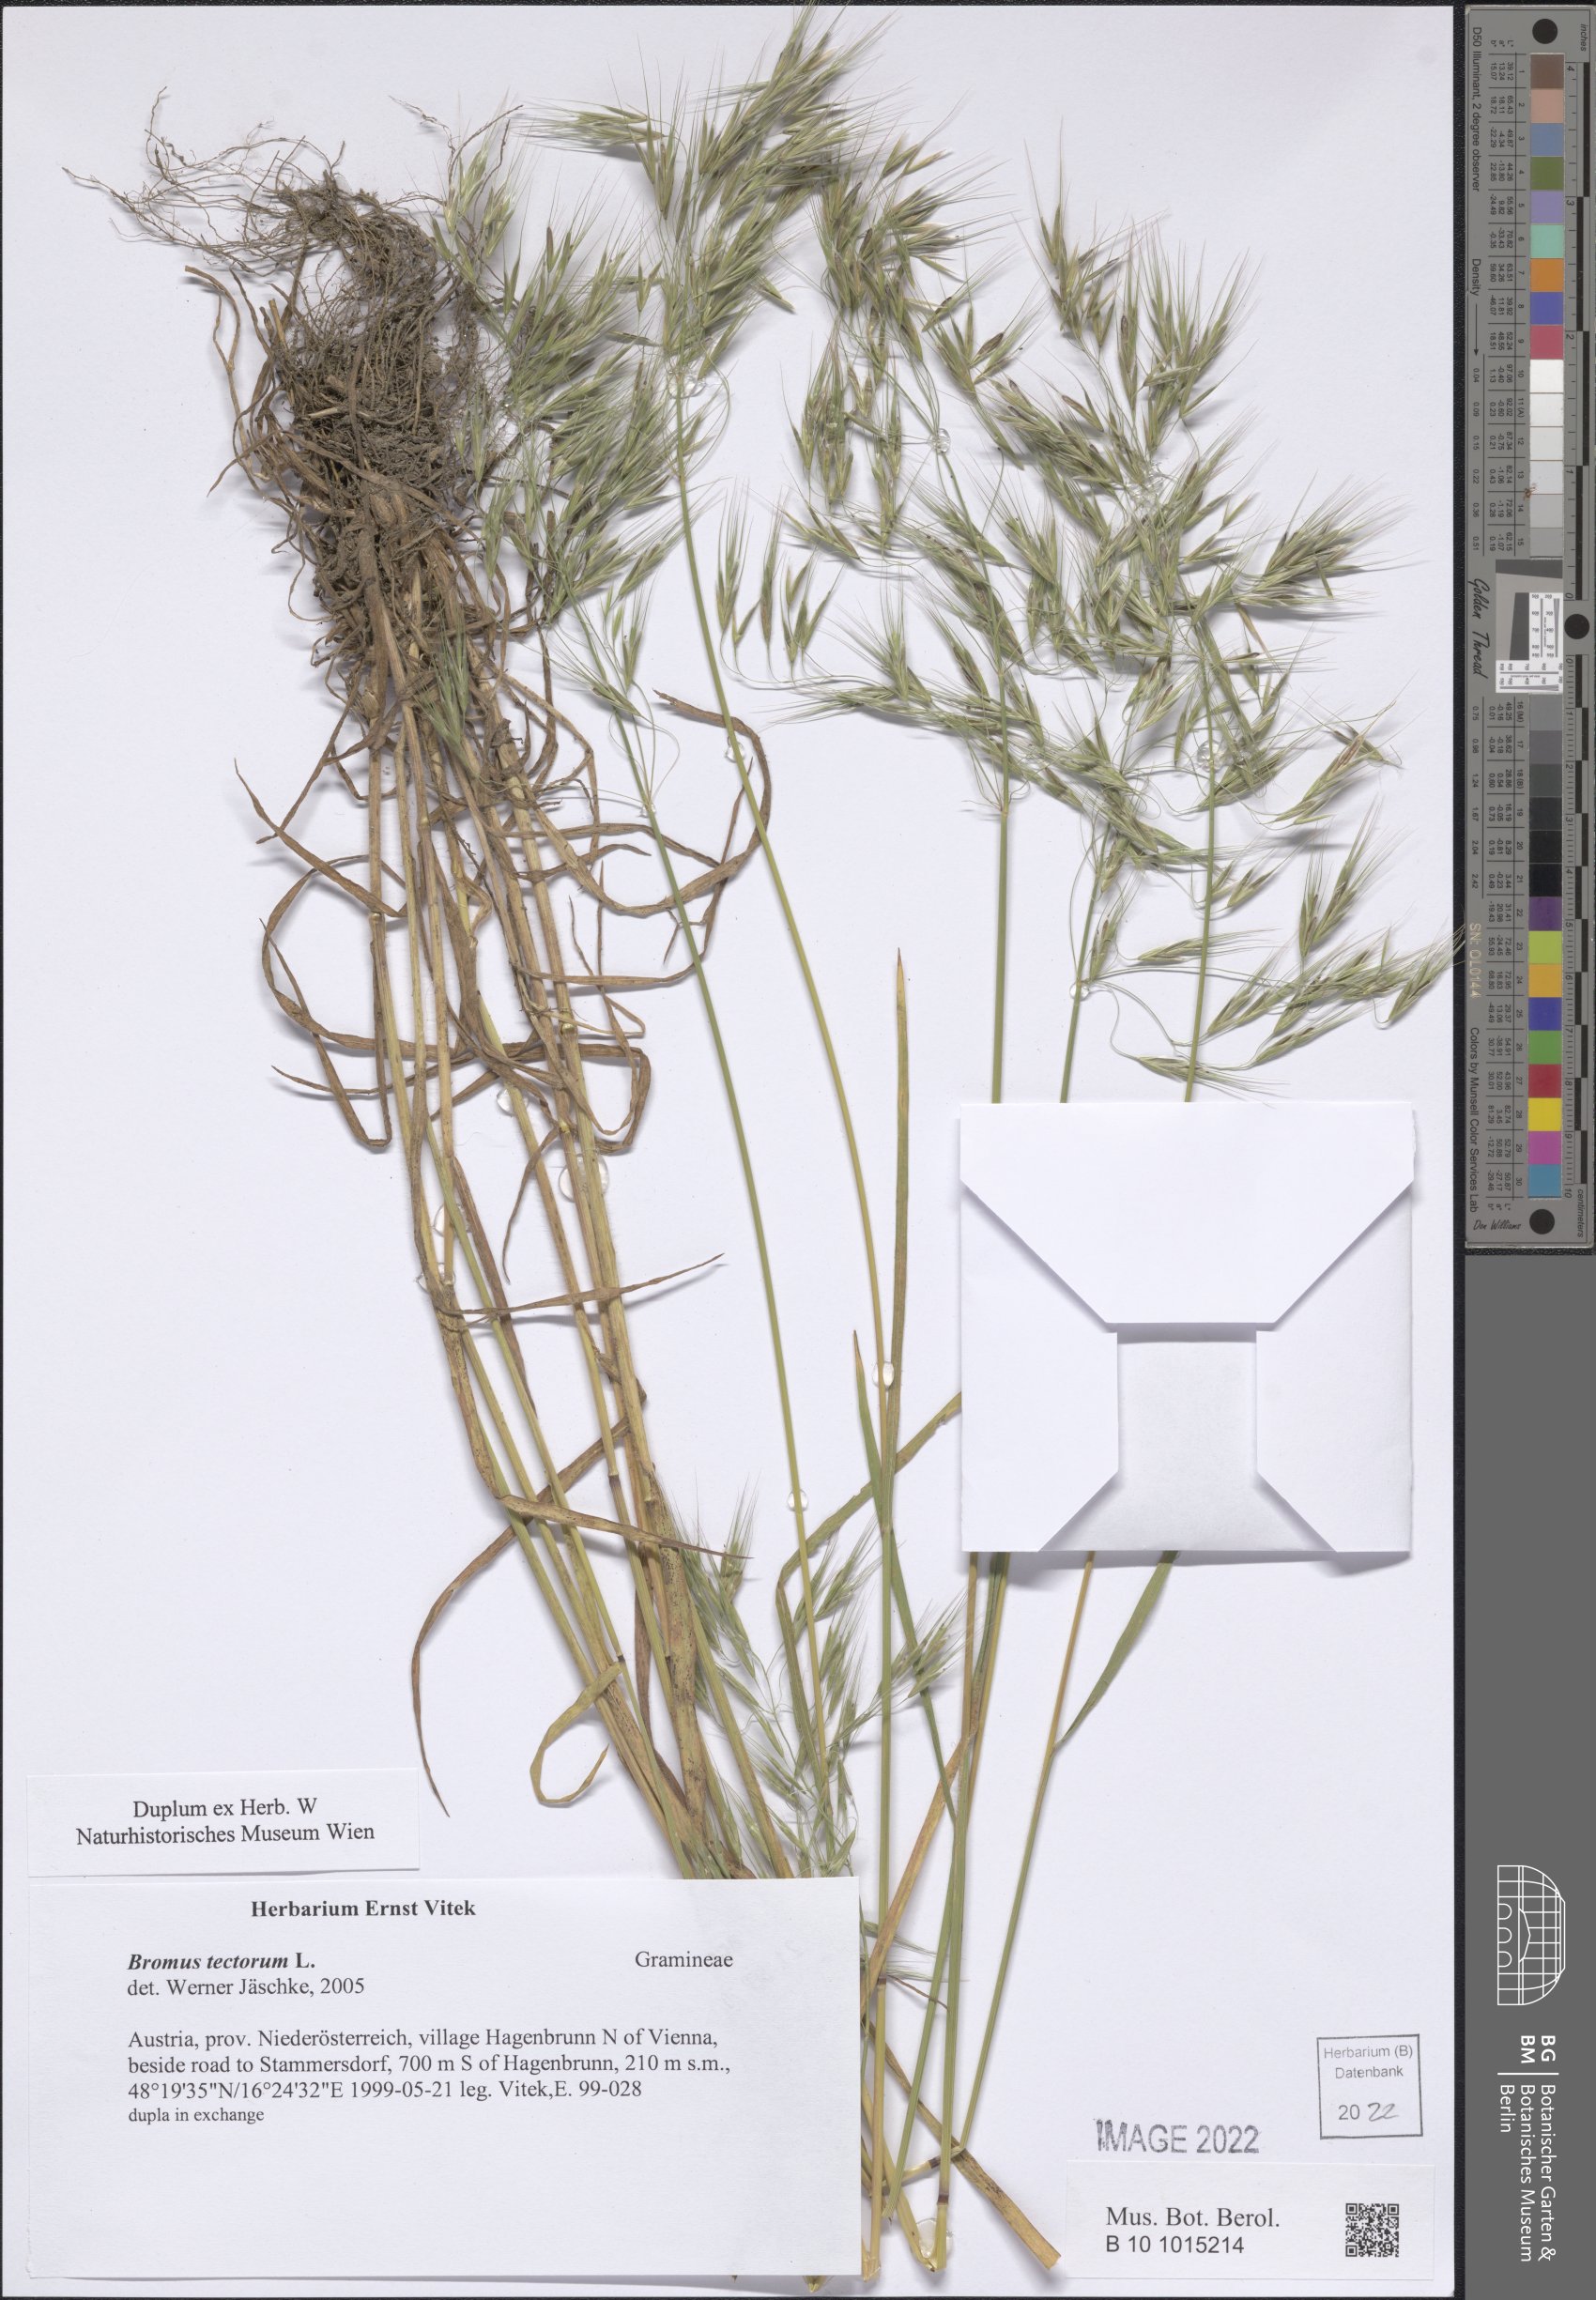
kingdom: Plantae
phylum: Tracheophyta
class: Liliopsida
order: Poales
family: Poaceae
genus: Bromus
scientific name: Bromus tectorum
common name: Cheatgrass
